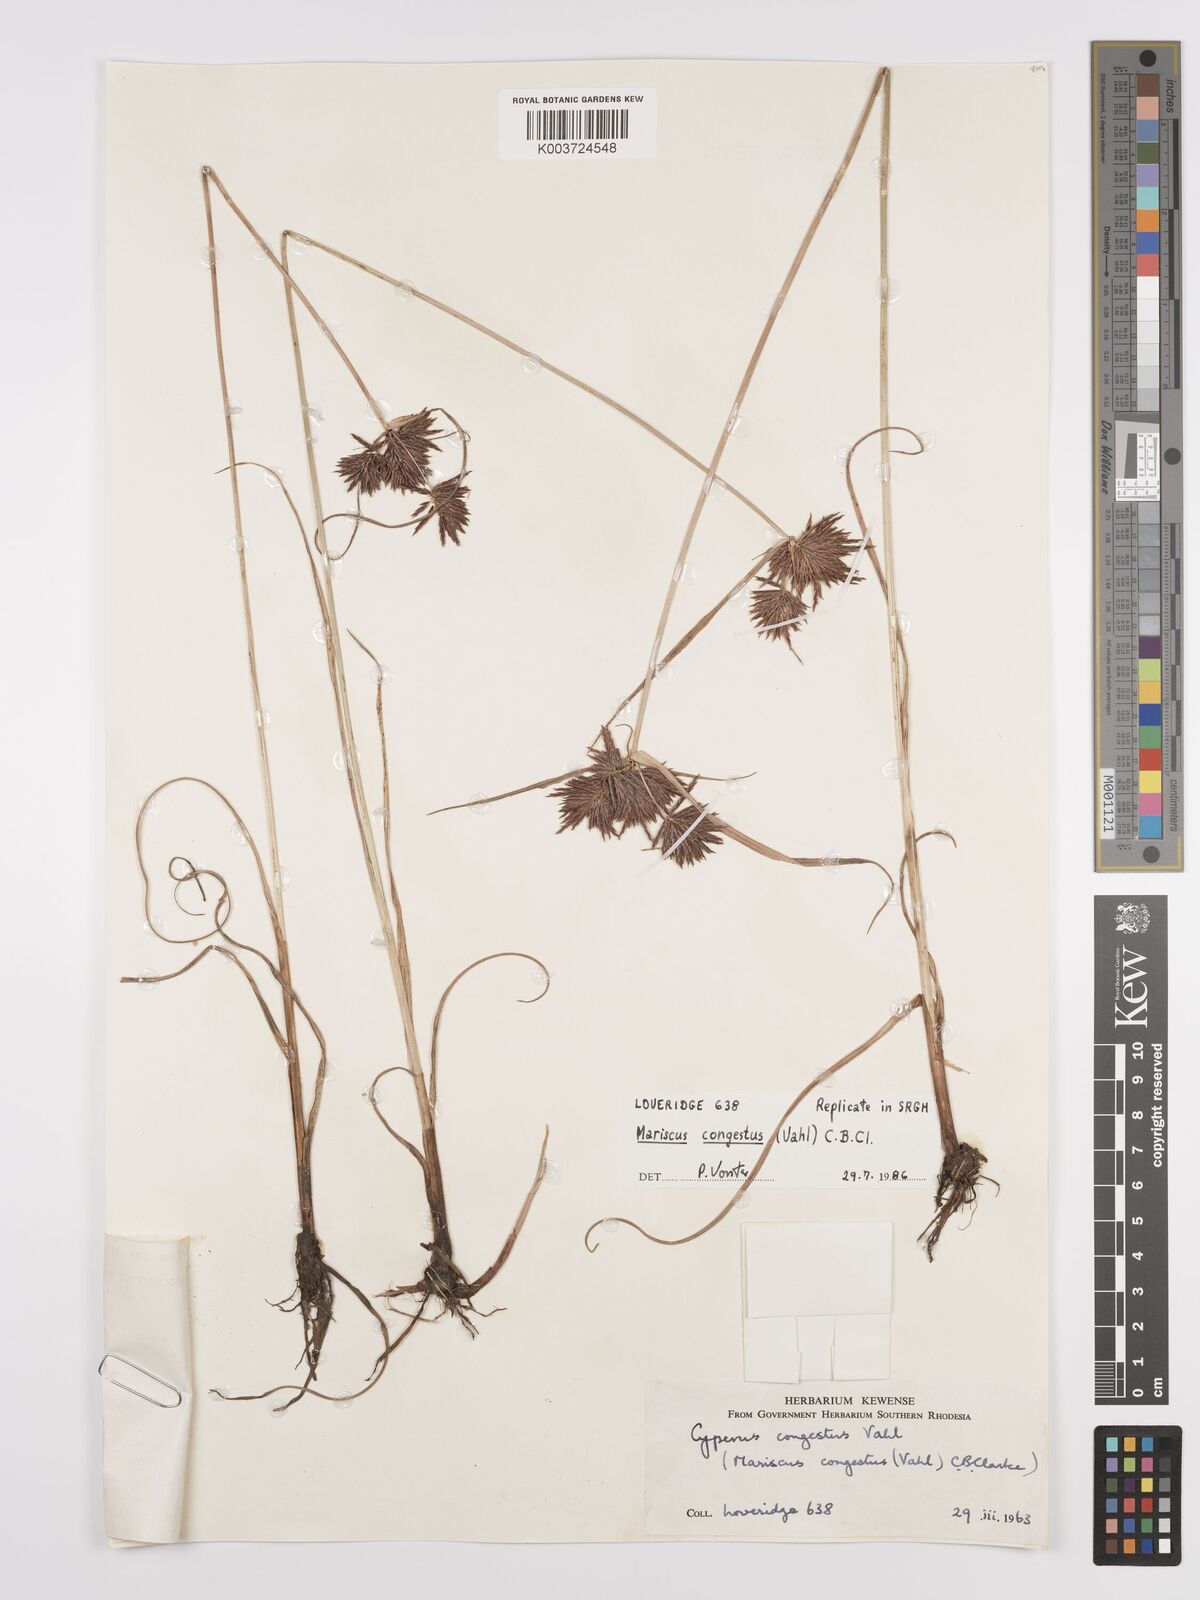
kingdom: Plantae
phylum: Tracheophyta
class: Liliopsida
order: Poales
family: Cyperaceae
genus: Cyperus
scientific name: Cyperus congestus
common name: Dense flat sedge
